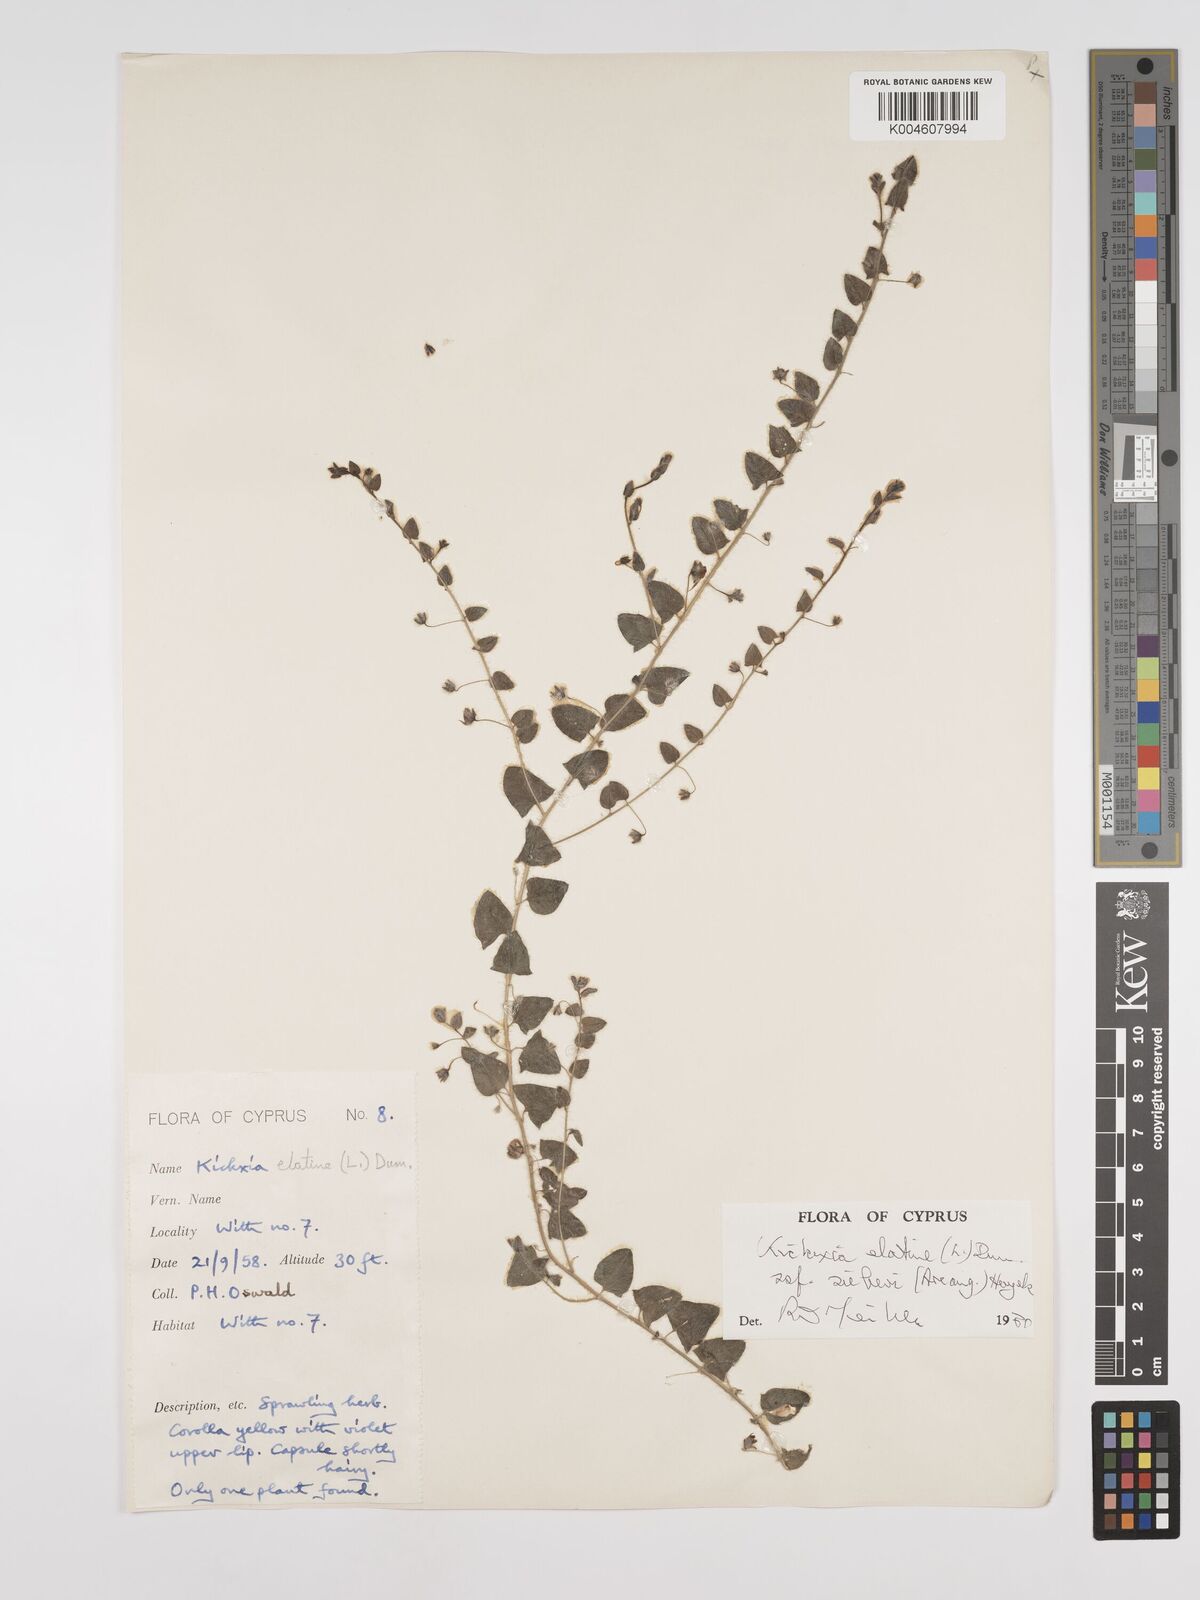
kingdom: Plantae
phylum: Tracheophyta
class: Magnoliopsida
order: Lamiales
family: Plantaginaceae
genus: Kickxia
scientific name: Kickxia elatine
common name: Sharp-leaved fluellen
